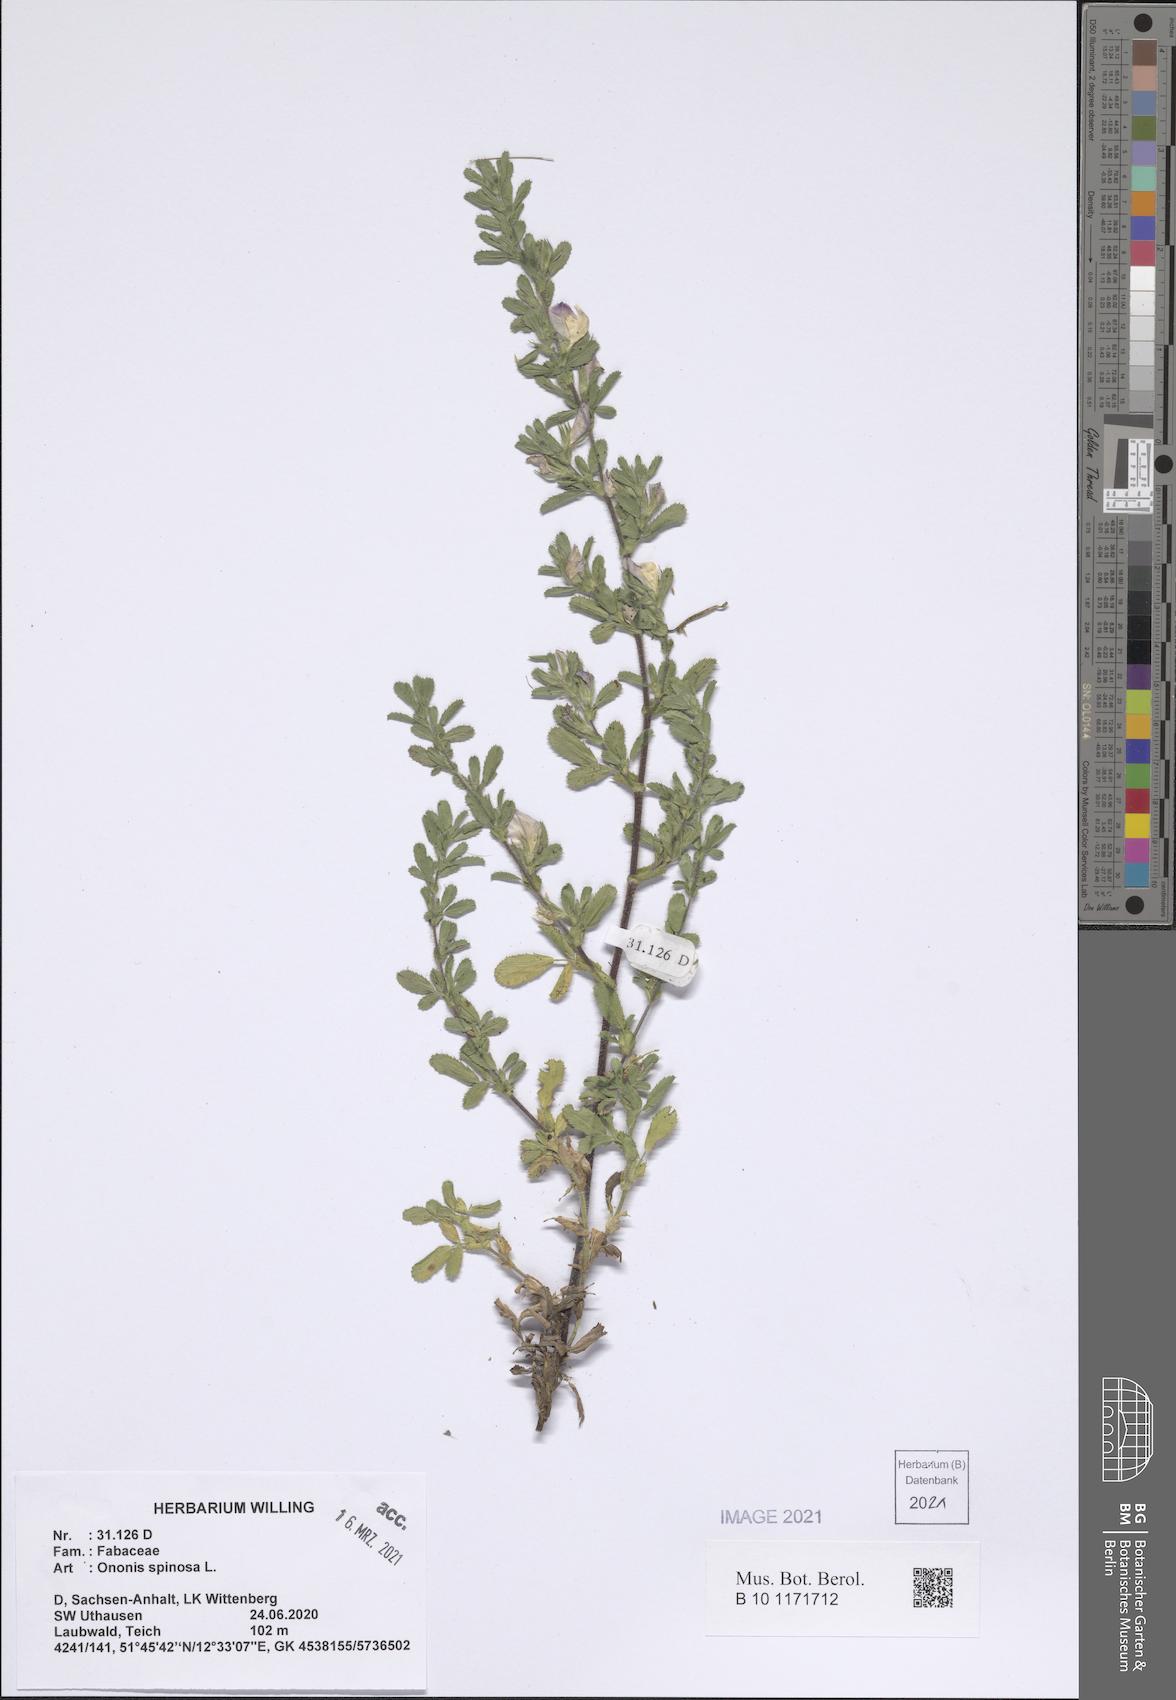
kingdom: Plantae
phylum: Tracheophyta
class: Magnoliopsida
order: Fabales
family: Fabaceae
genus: Ononis
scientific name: Ononis spinosa
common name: Spiny restharrow
